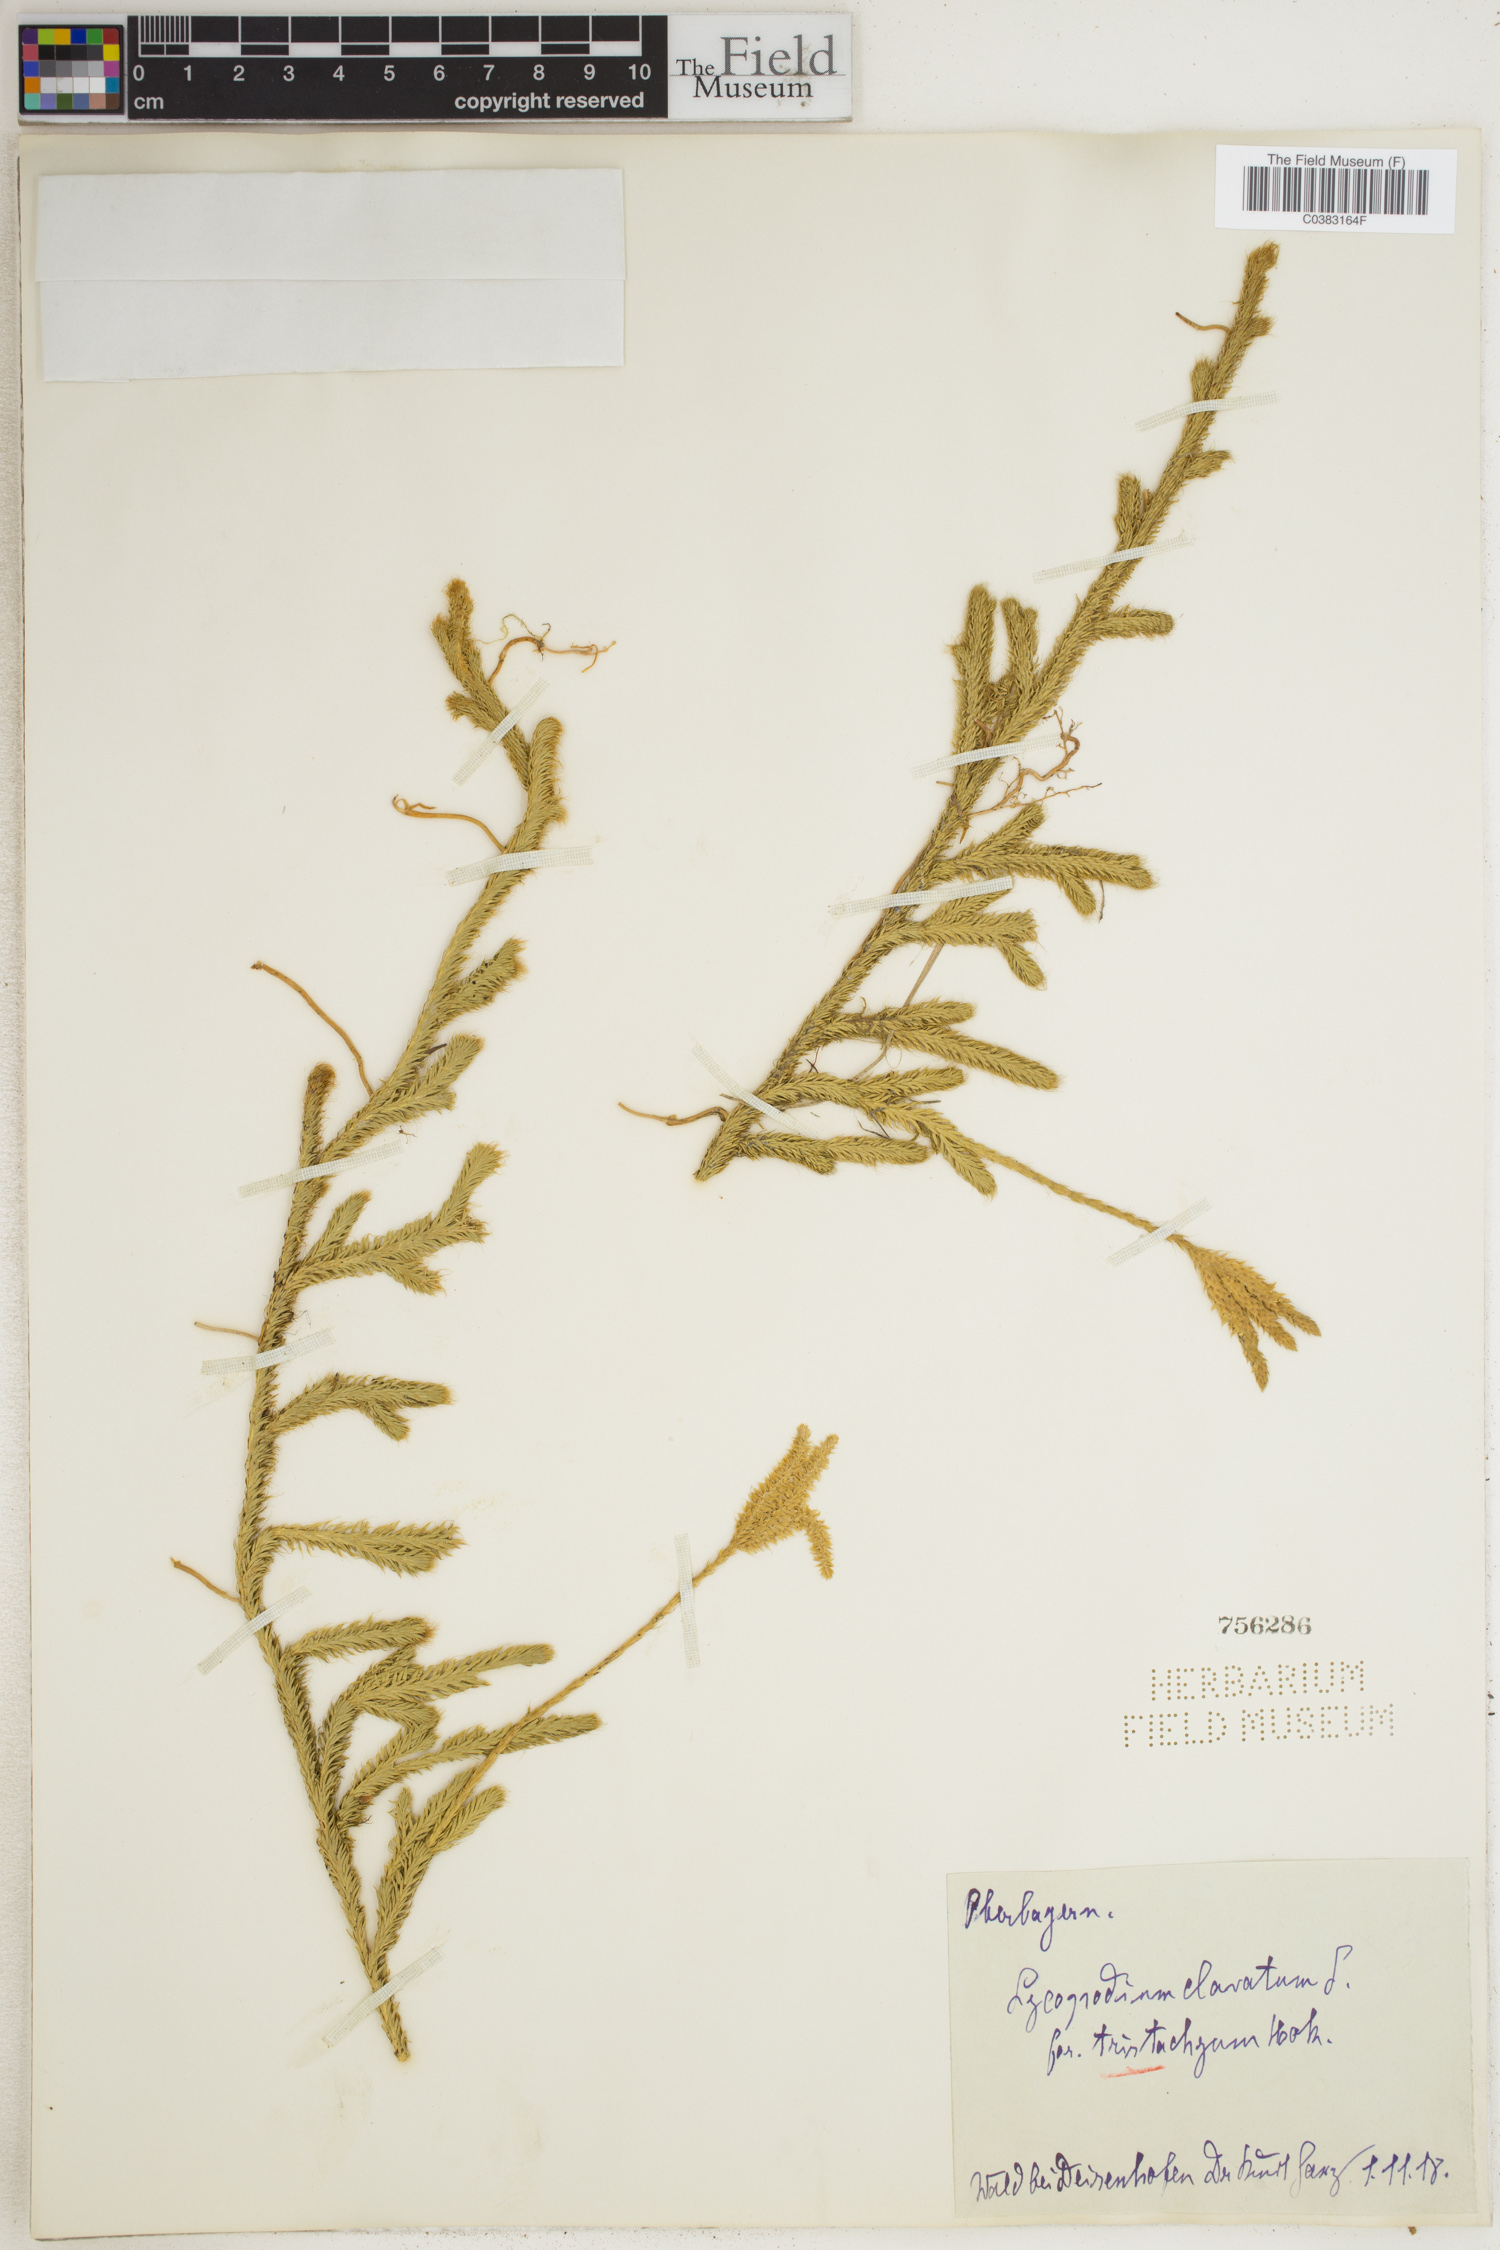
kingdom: Plantae
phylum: Tracheophyta
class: Lycopodiopsida
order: Lycopodiales
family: Lycopodiaceae
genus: Lycopodium
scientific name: Lycopodium clavatum
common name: Stag's-horn clubmoss
